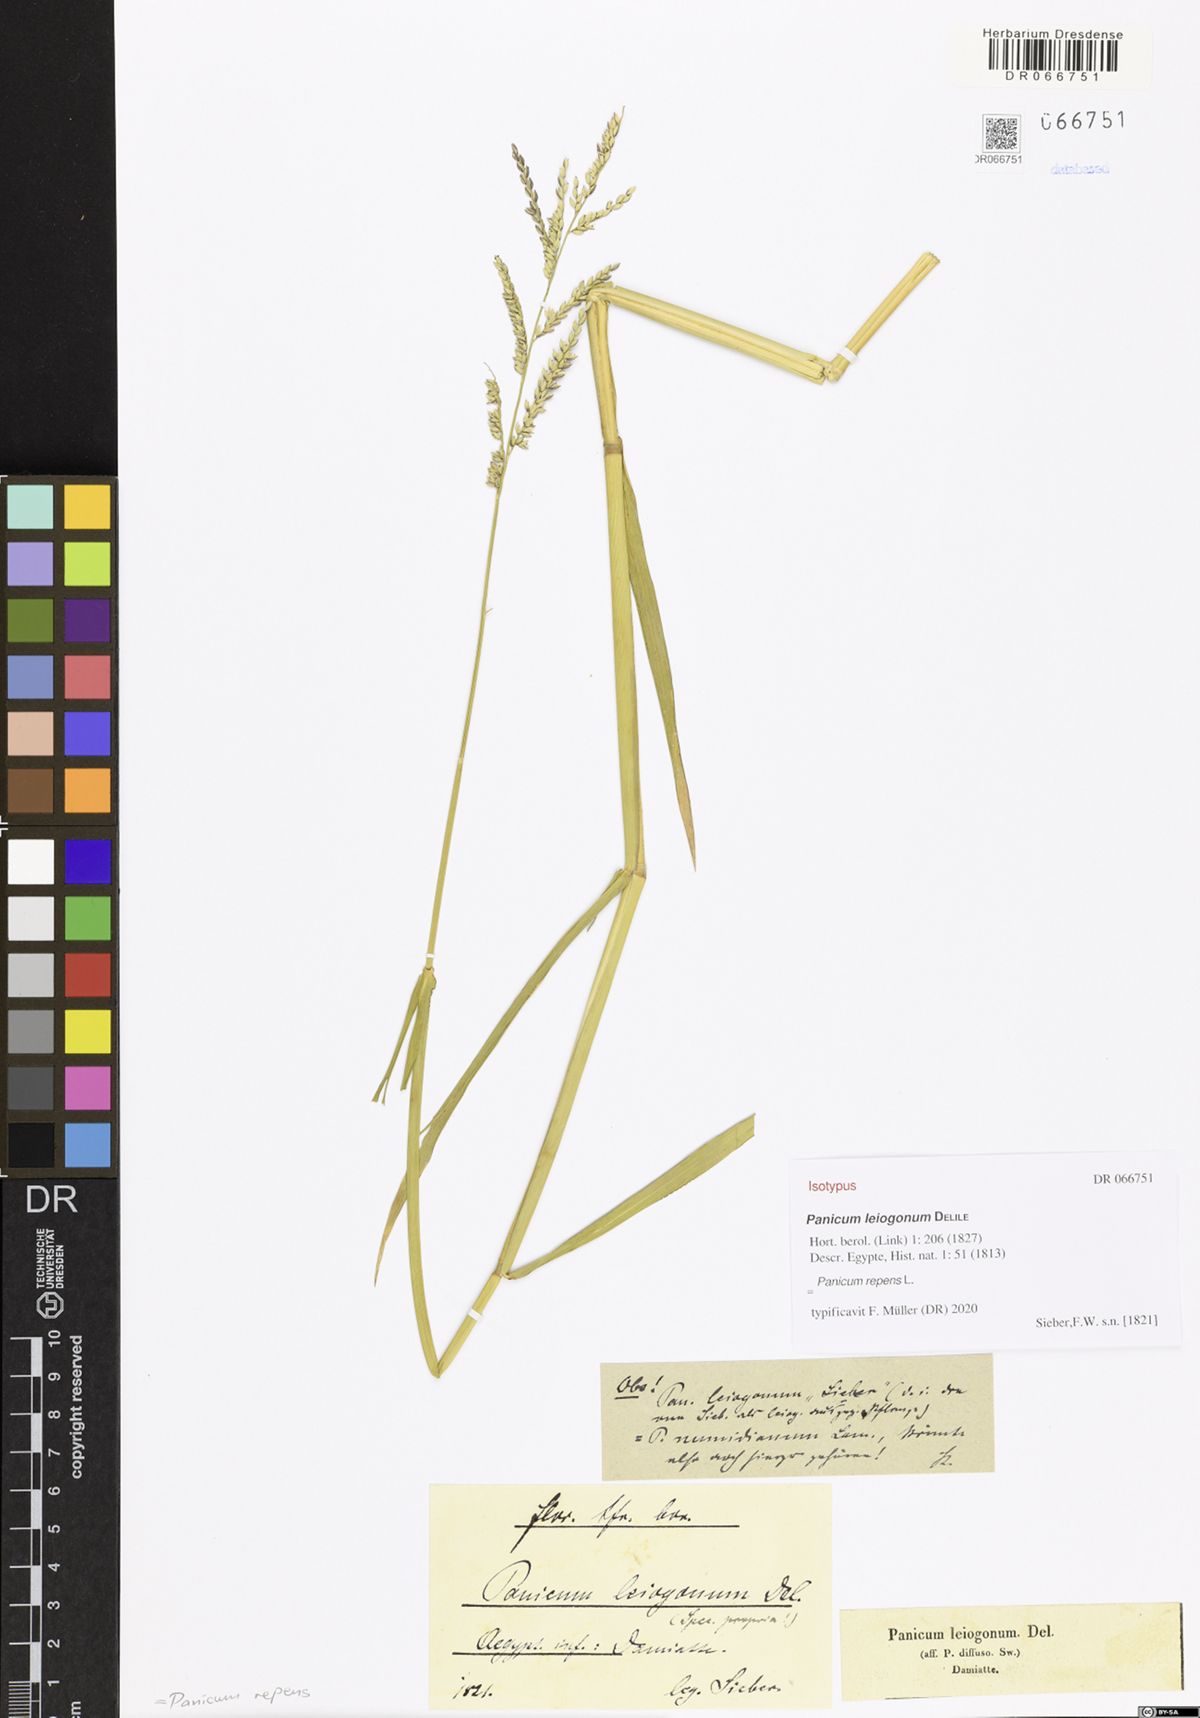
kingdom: Plantae
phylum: Tracheophyta
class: Liliopsida
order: Poales
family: Poaceae
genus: Panicum
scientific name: Panicum repens
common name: Torpedo grass
